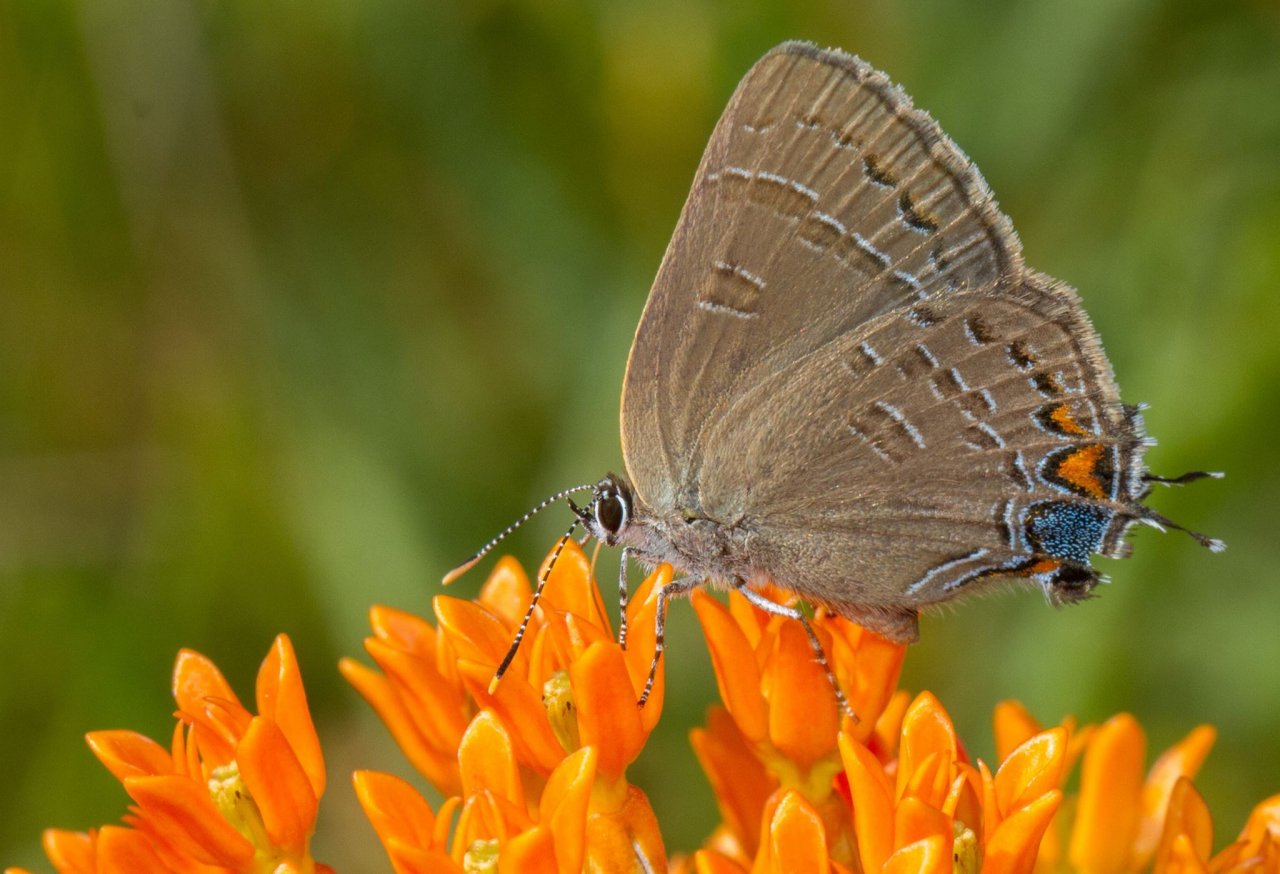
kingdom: Animalia
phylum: Arthropoda
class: Insecta
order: Lepidoptera
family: Lycaenidae
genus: Satyrium
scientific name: Satyrium calanus
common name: Banded Hairstreak
